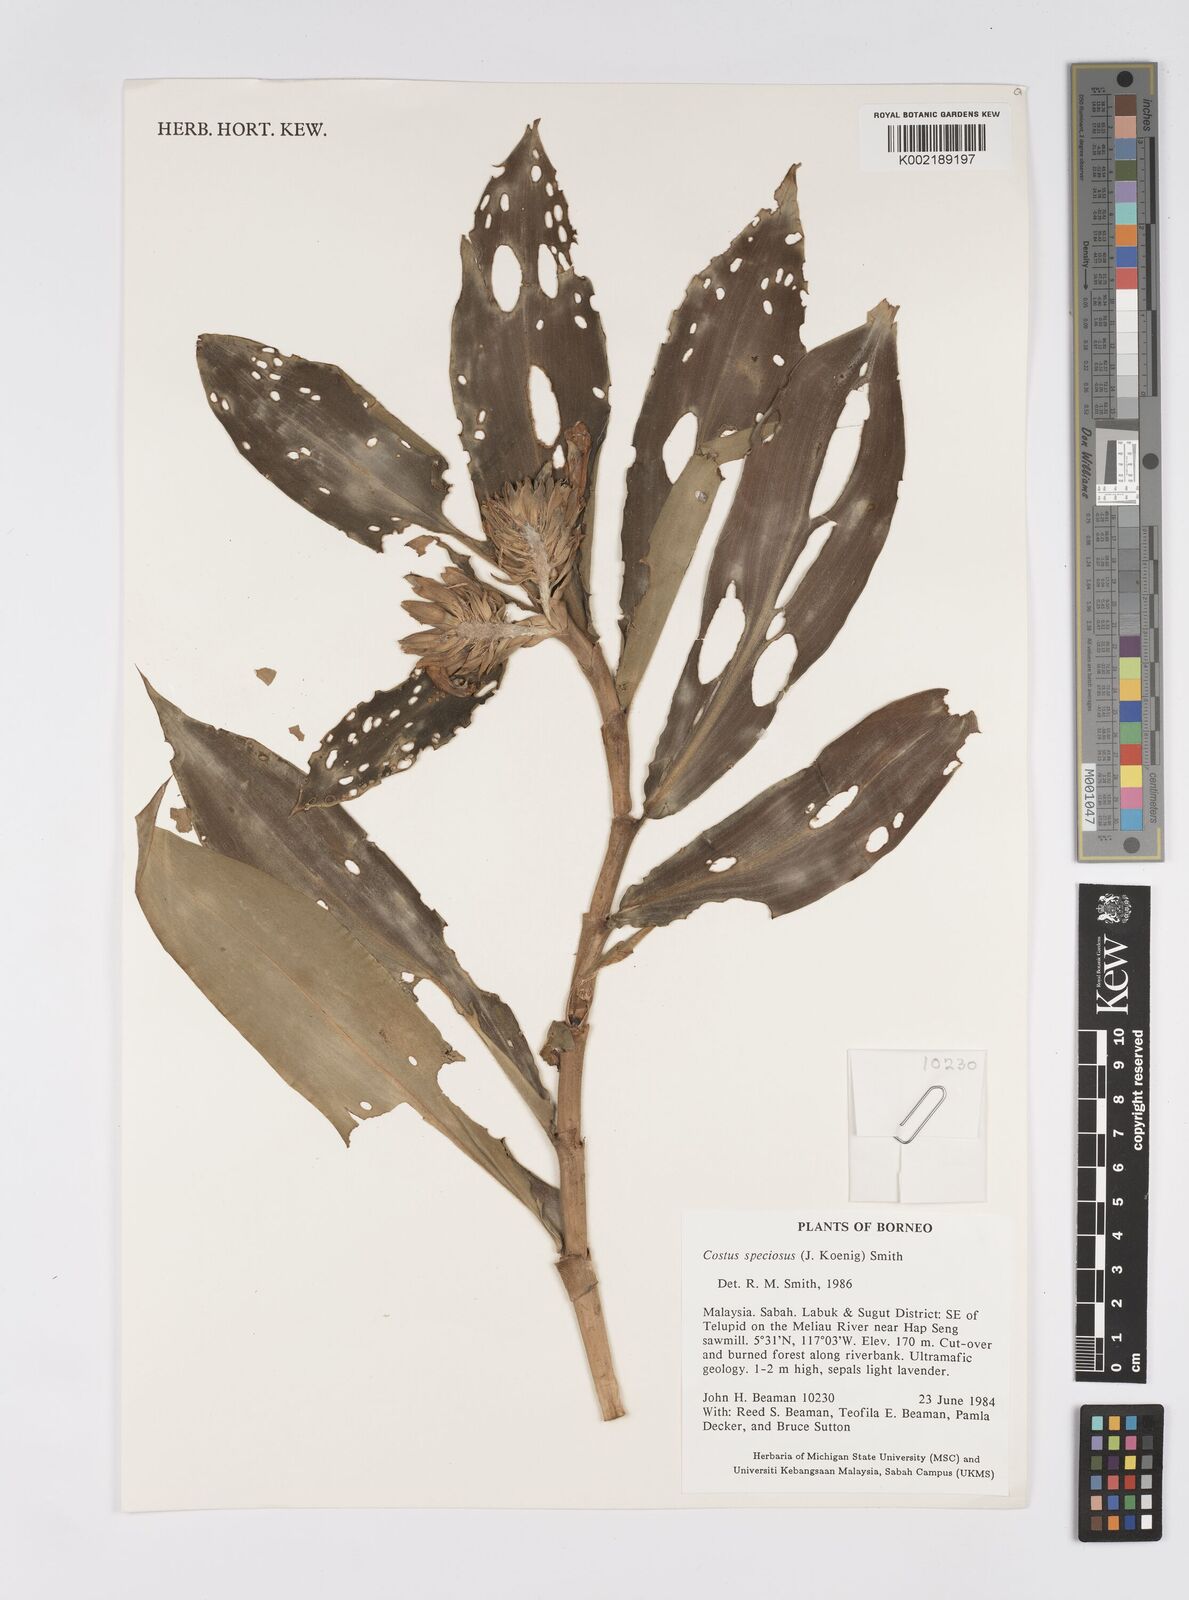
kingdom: Plantae
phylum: Tracheophyta
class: Liliopsida
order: Zingiberales
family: Costaceae
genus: Hellenia
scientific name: Hellenia speciosa
